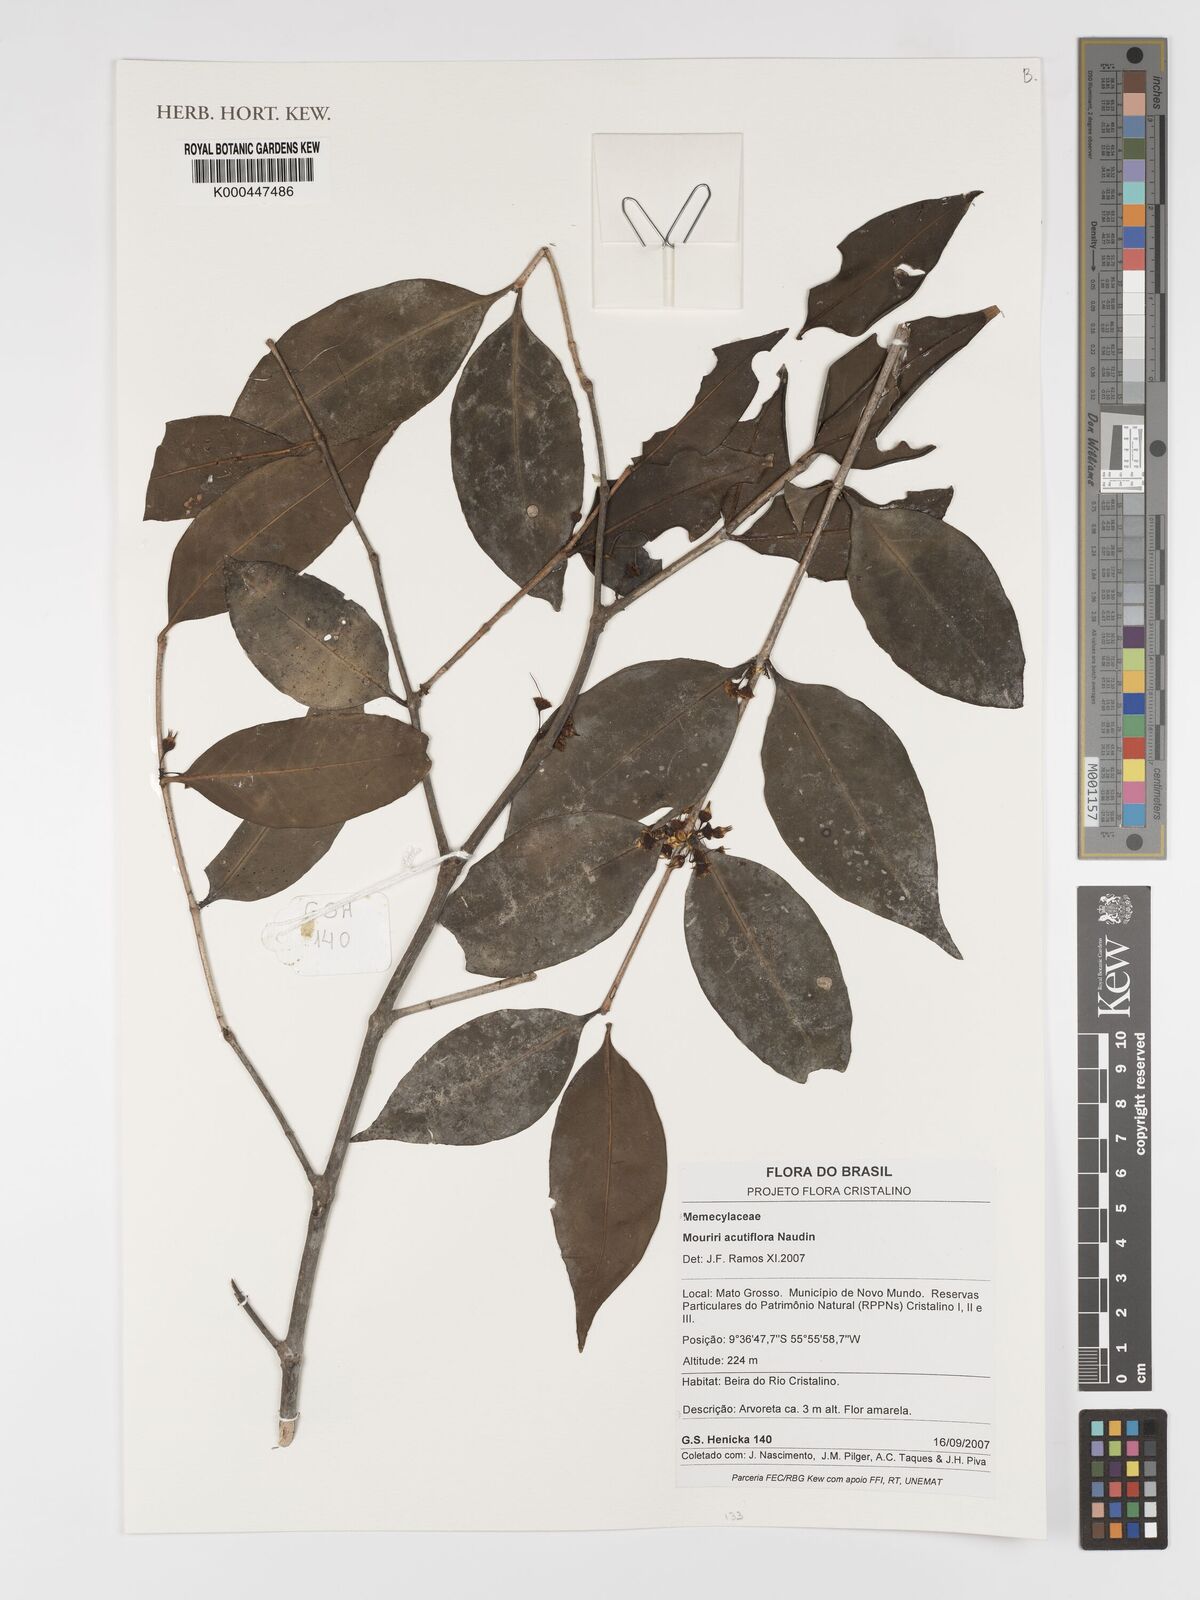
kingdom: Plantae
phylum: Tracheophyta
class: Magnoliopsida
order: Myrtales
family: Melastomataceae
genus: Mouriri
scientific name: Mouriri acutiflora
